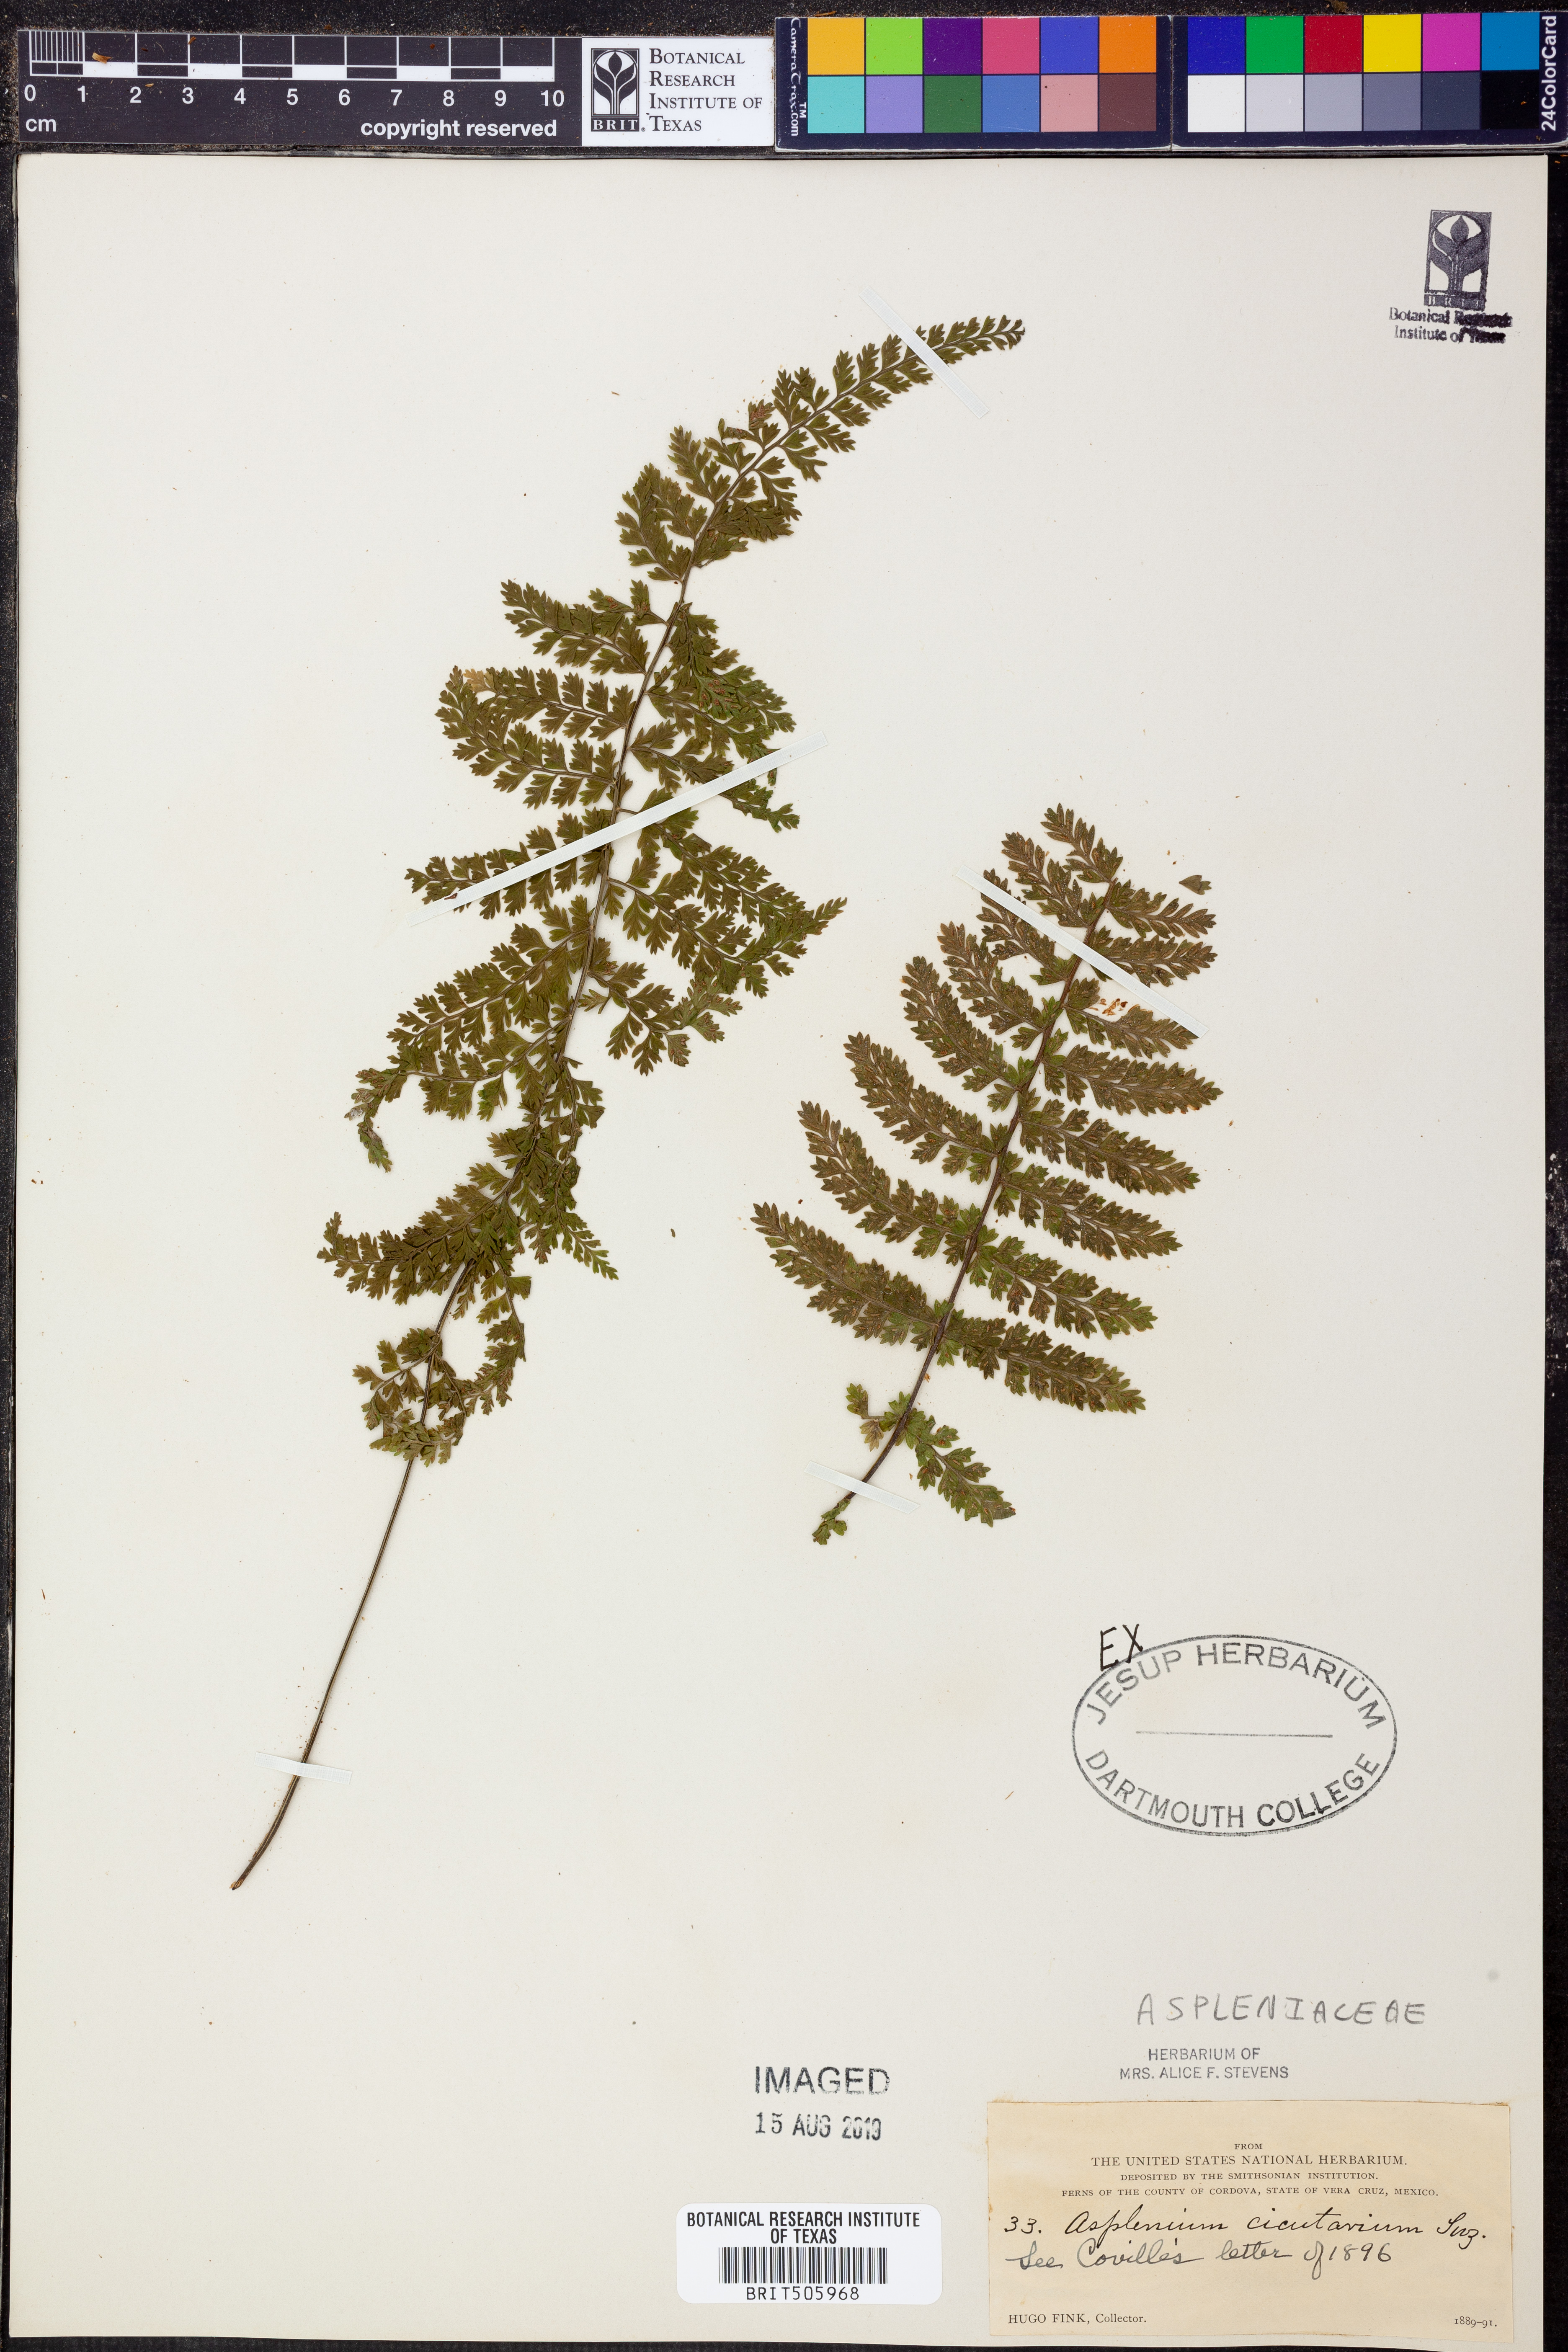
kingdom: Plantae
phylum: Tracheophyta
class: Polypodiopsida
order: Polypodiales
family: Aspleniaceae
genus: Asplenium
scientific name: Asplenium cristatum
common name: Parsley spleenwort
